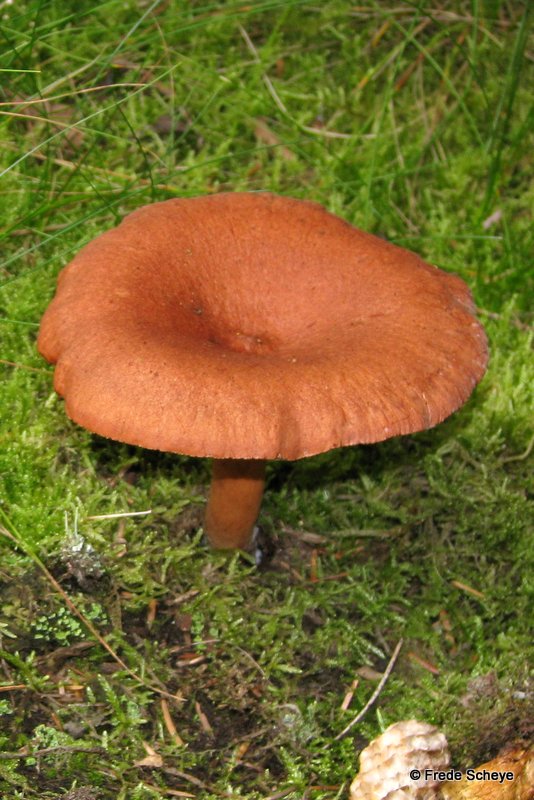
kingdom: Fungi
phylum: Basidiomycota
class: Agaricomycetes
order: Russulales
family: Russulaceae
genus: Lactarius
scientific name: Lactarius rufus
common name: rødbrun mælkehat
